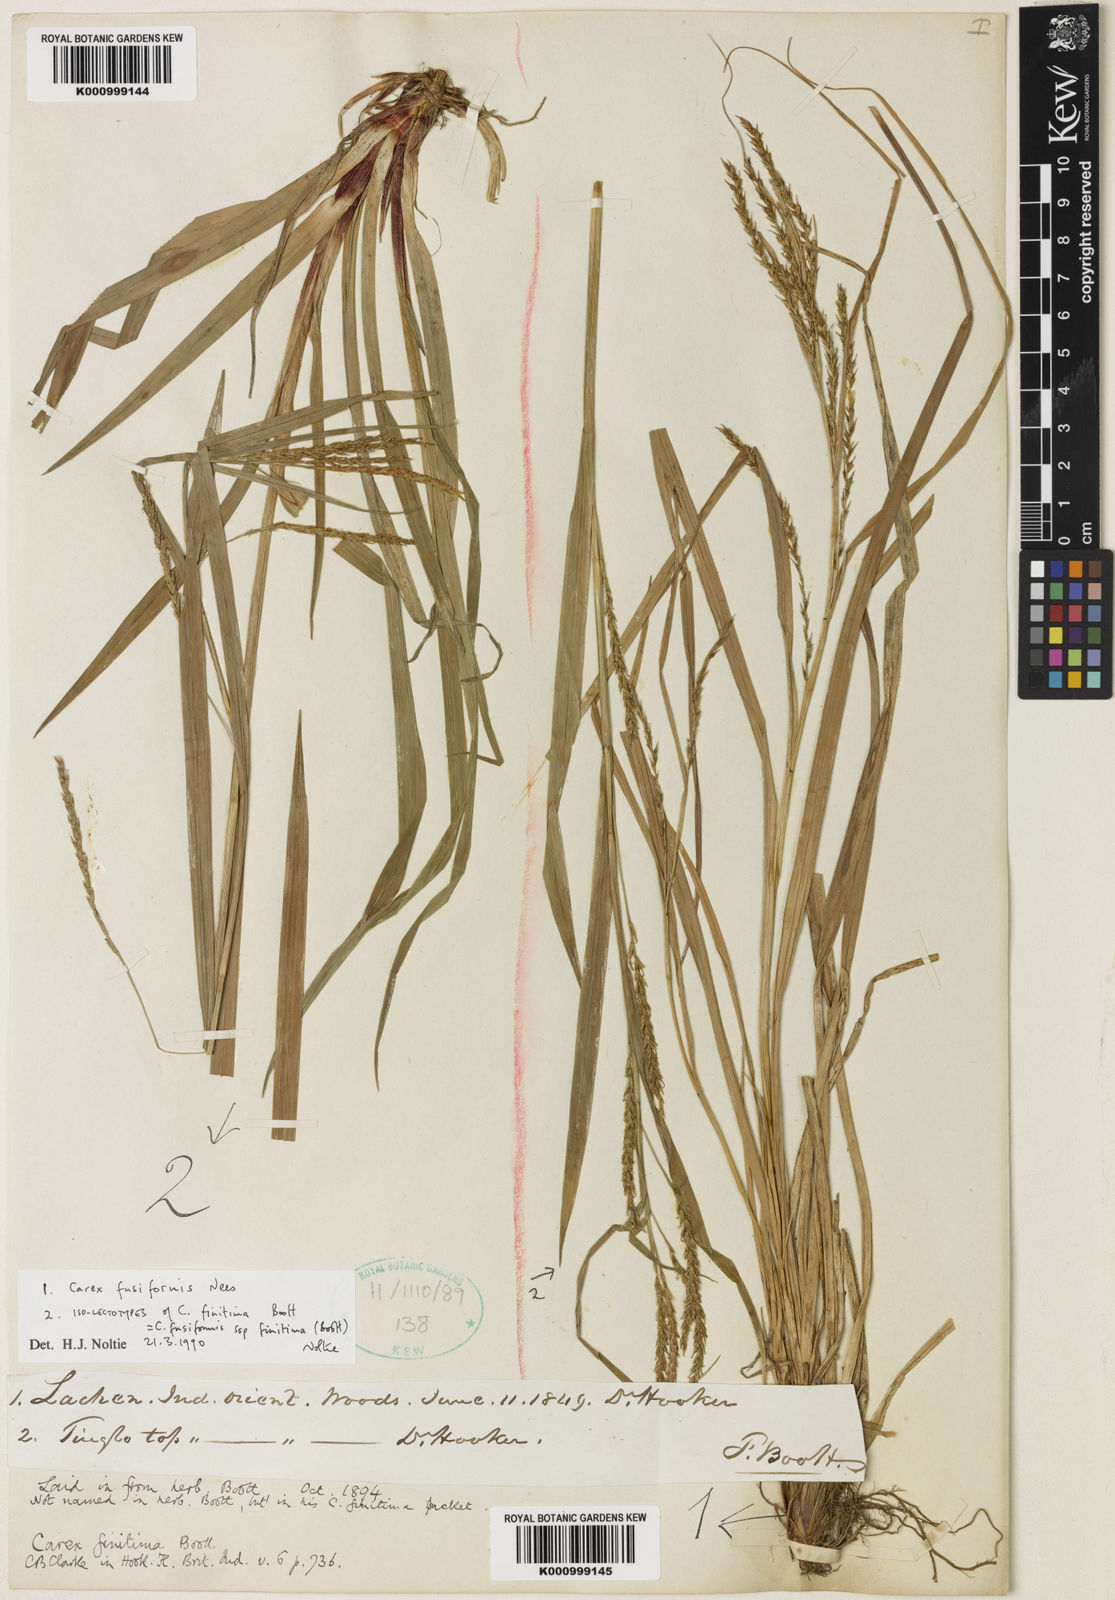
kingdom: Plantae
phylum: Tracheophyta
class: Liliopsida
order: Poales
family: Cyperaceae
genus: Carex
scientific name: Carex fusiformis
